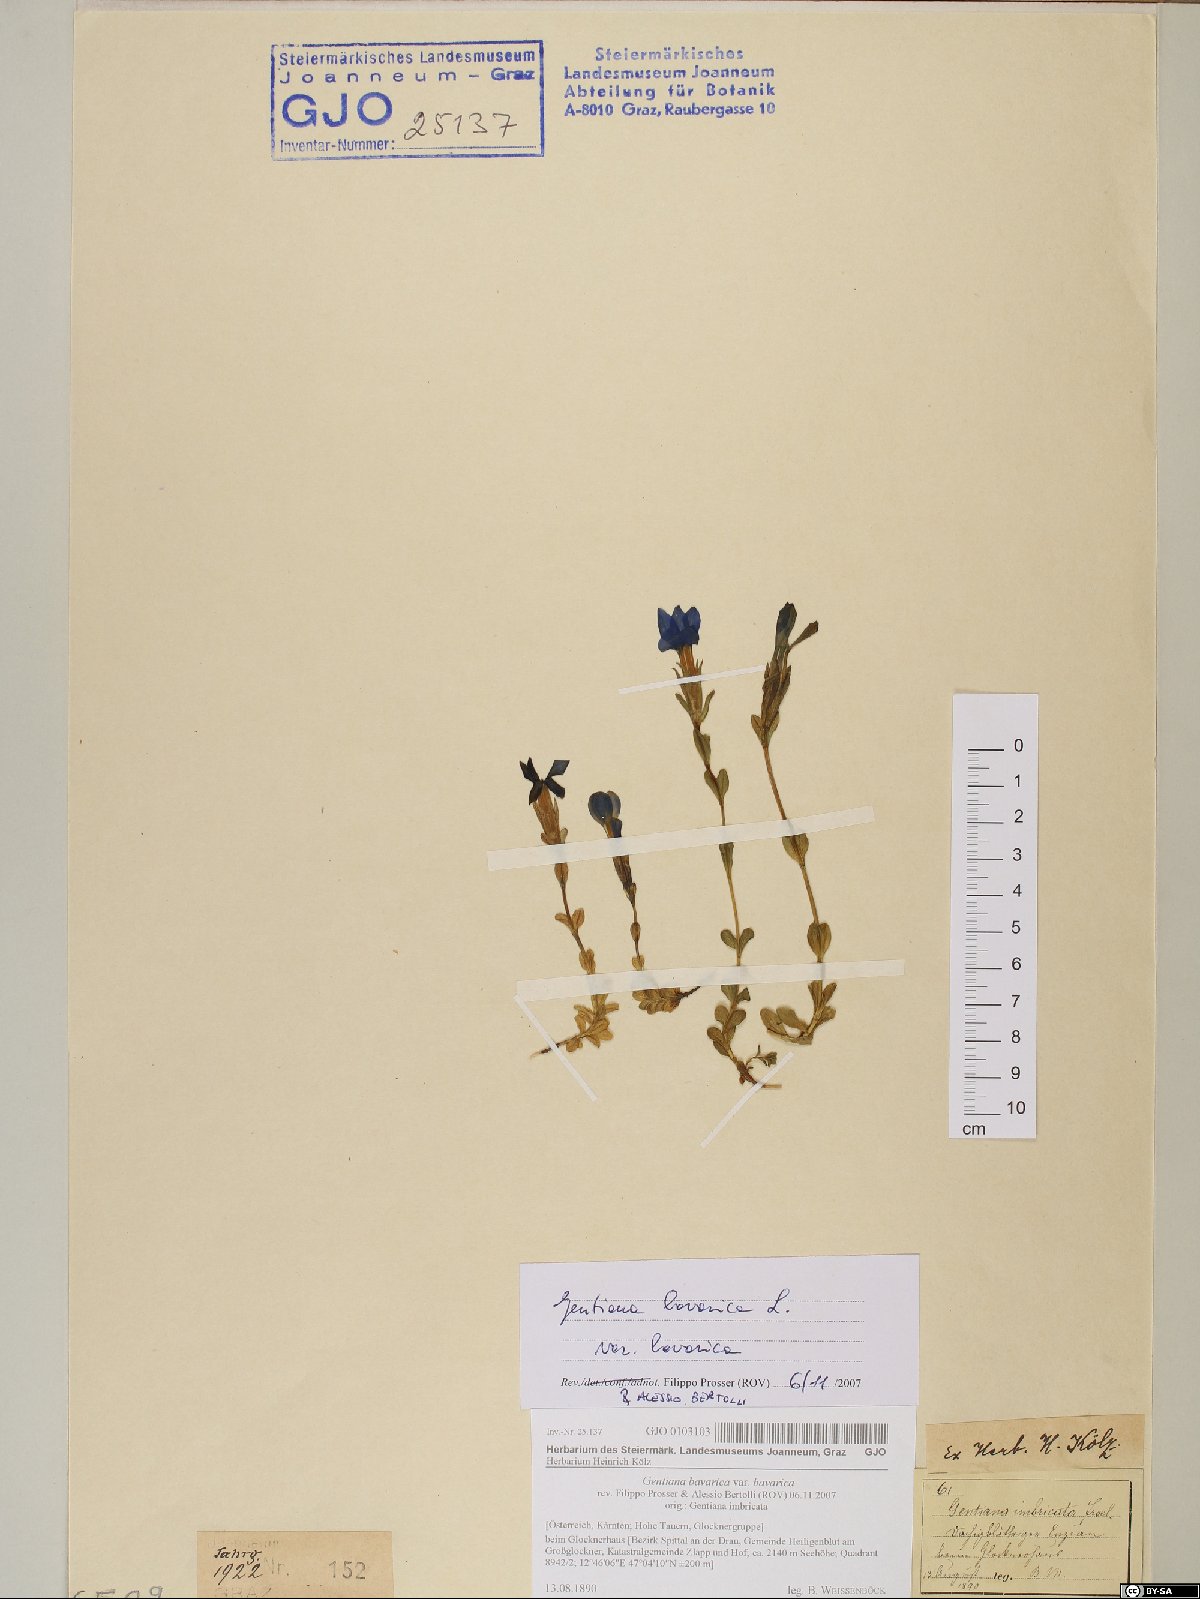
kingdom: Plantae
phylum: Tracheophyta
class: Magnoliopsida
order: Gentianales
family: Gentianaceae
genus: Gentiana
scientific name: Gentiana bavarica
